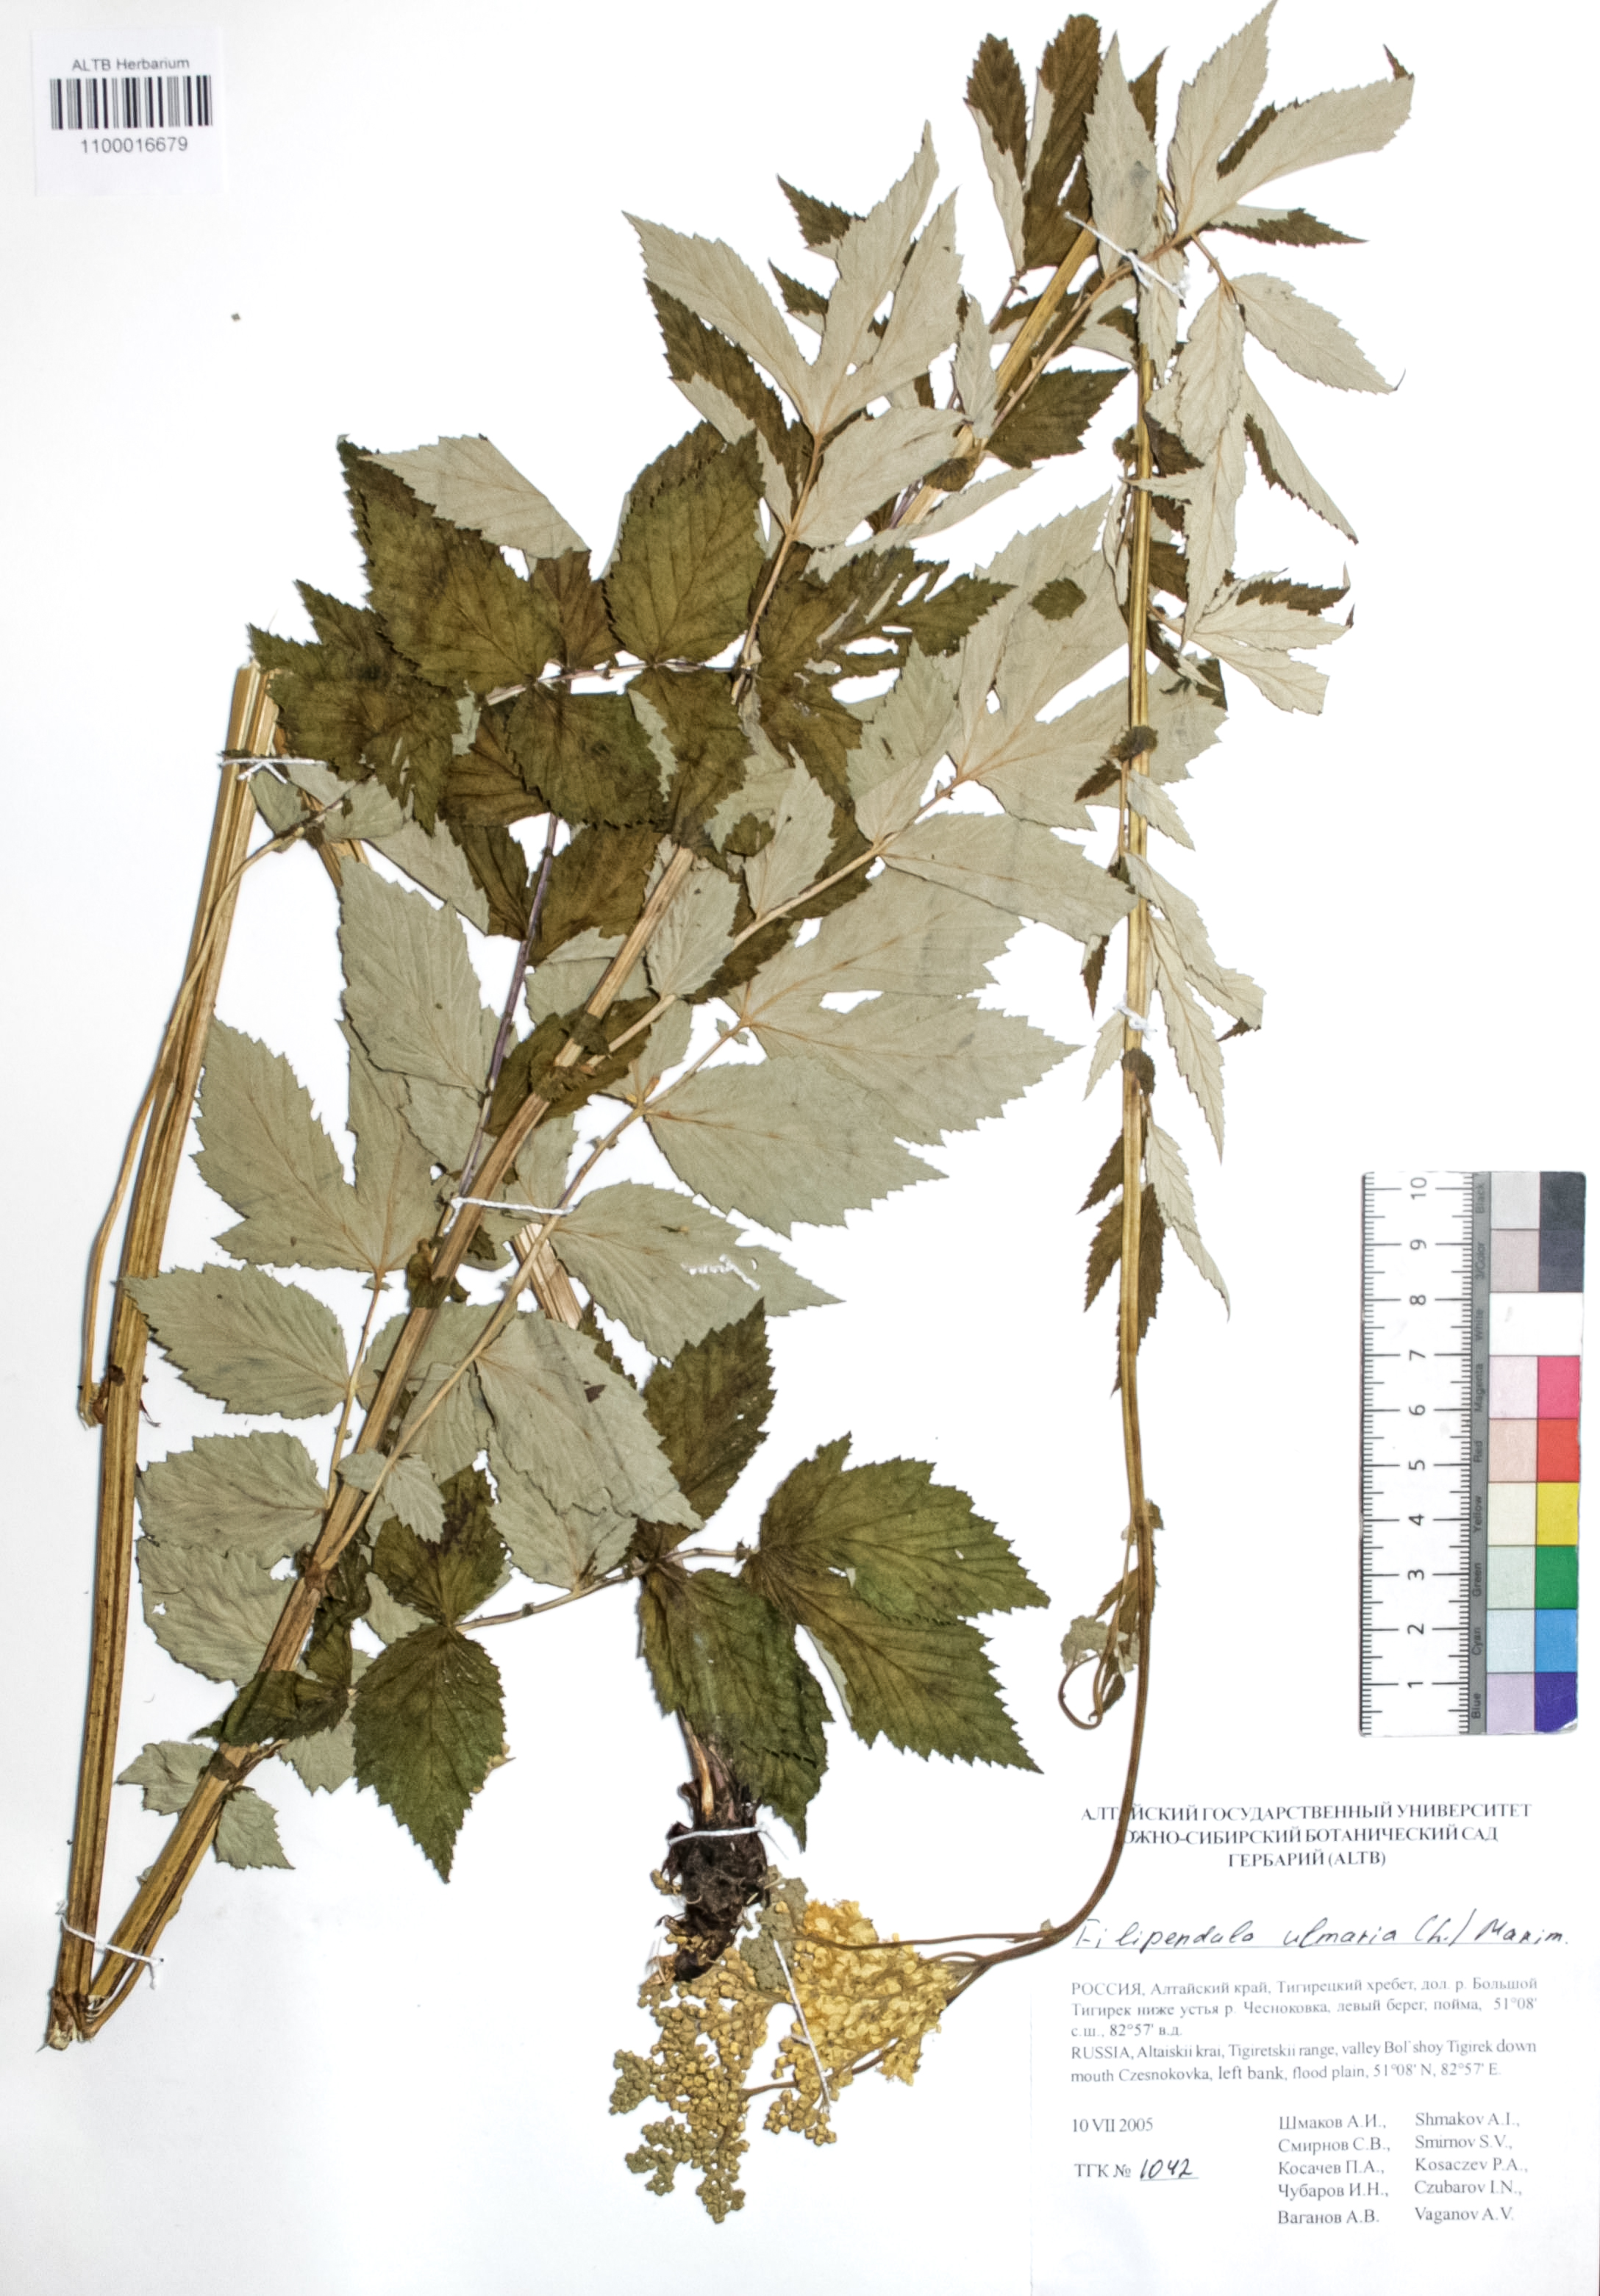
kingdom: Plantae
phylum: Tracheophyta
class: Magnoliopsida
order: Rosales
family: Rosaceae
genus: Filipendula
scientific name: Filipendula ulmaria
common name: Meadowsweet
